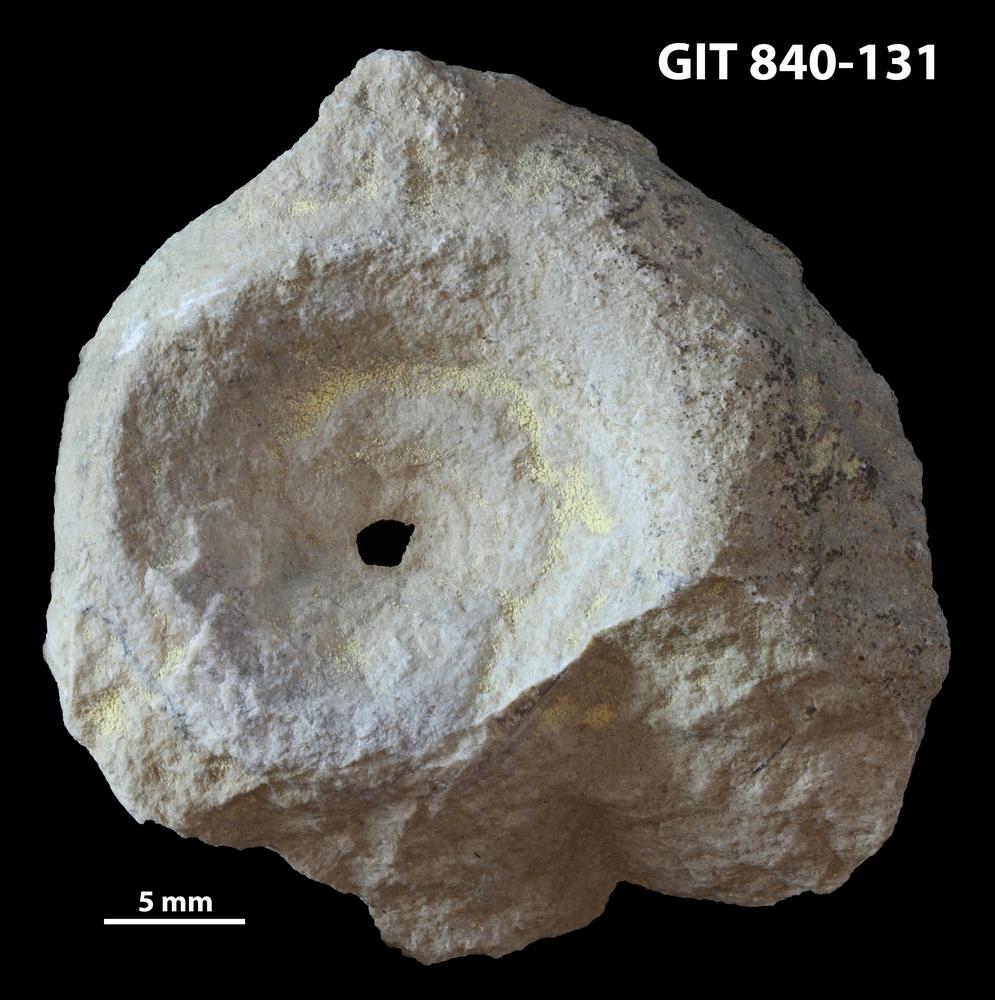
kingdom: Animalia
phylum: Mollusca
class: Gastropoda
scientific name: Gastropoda
